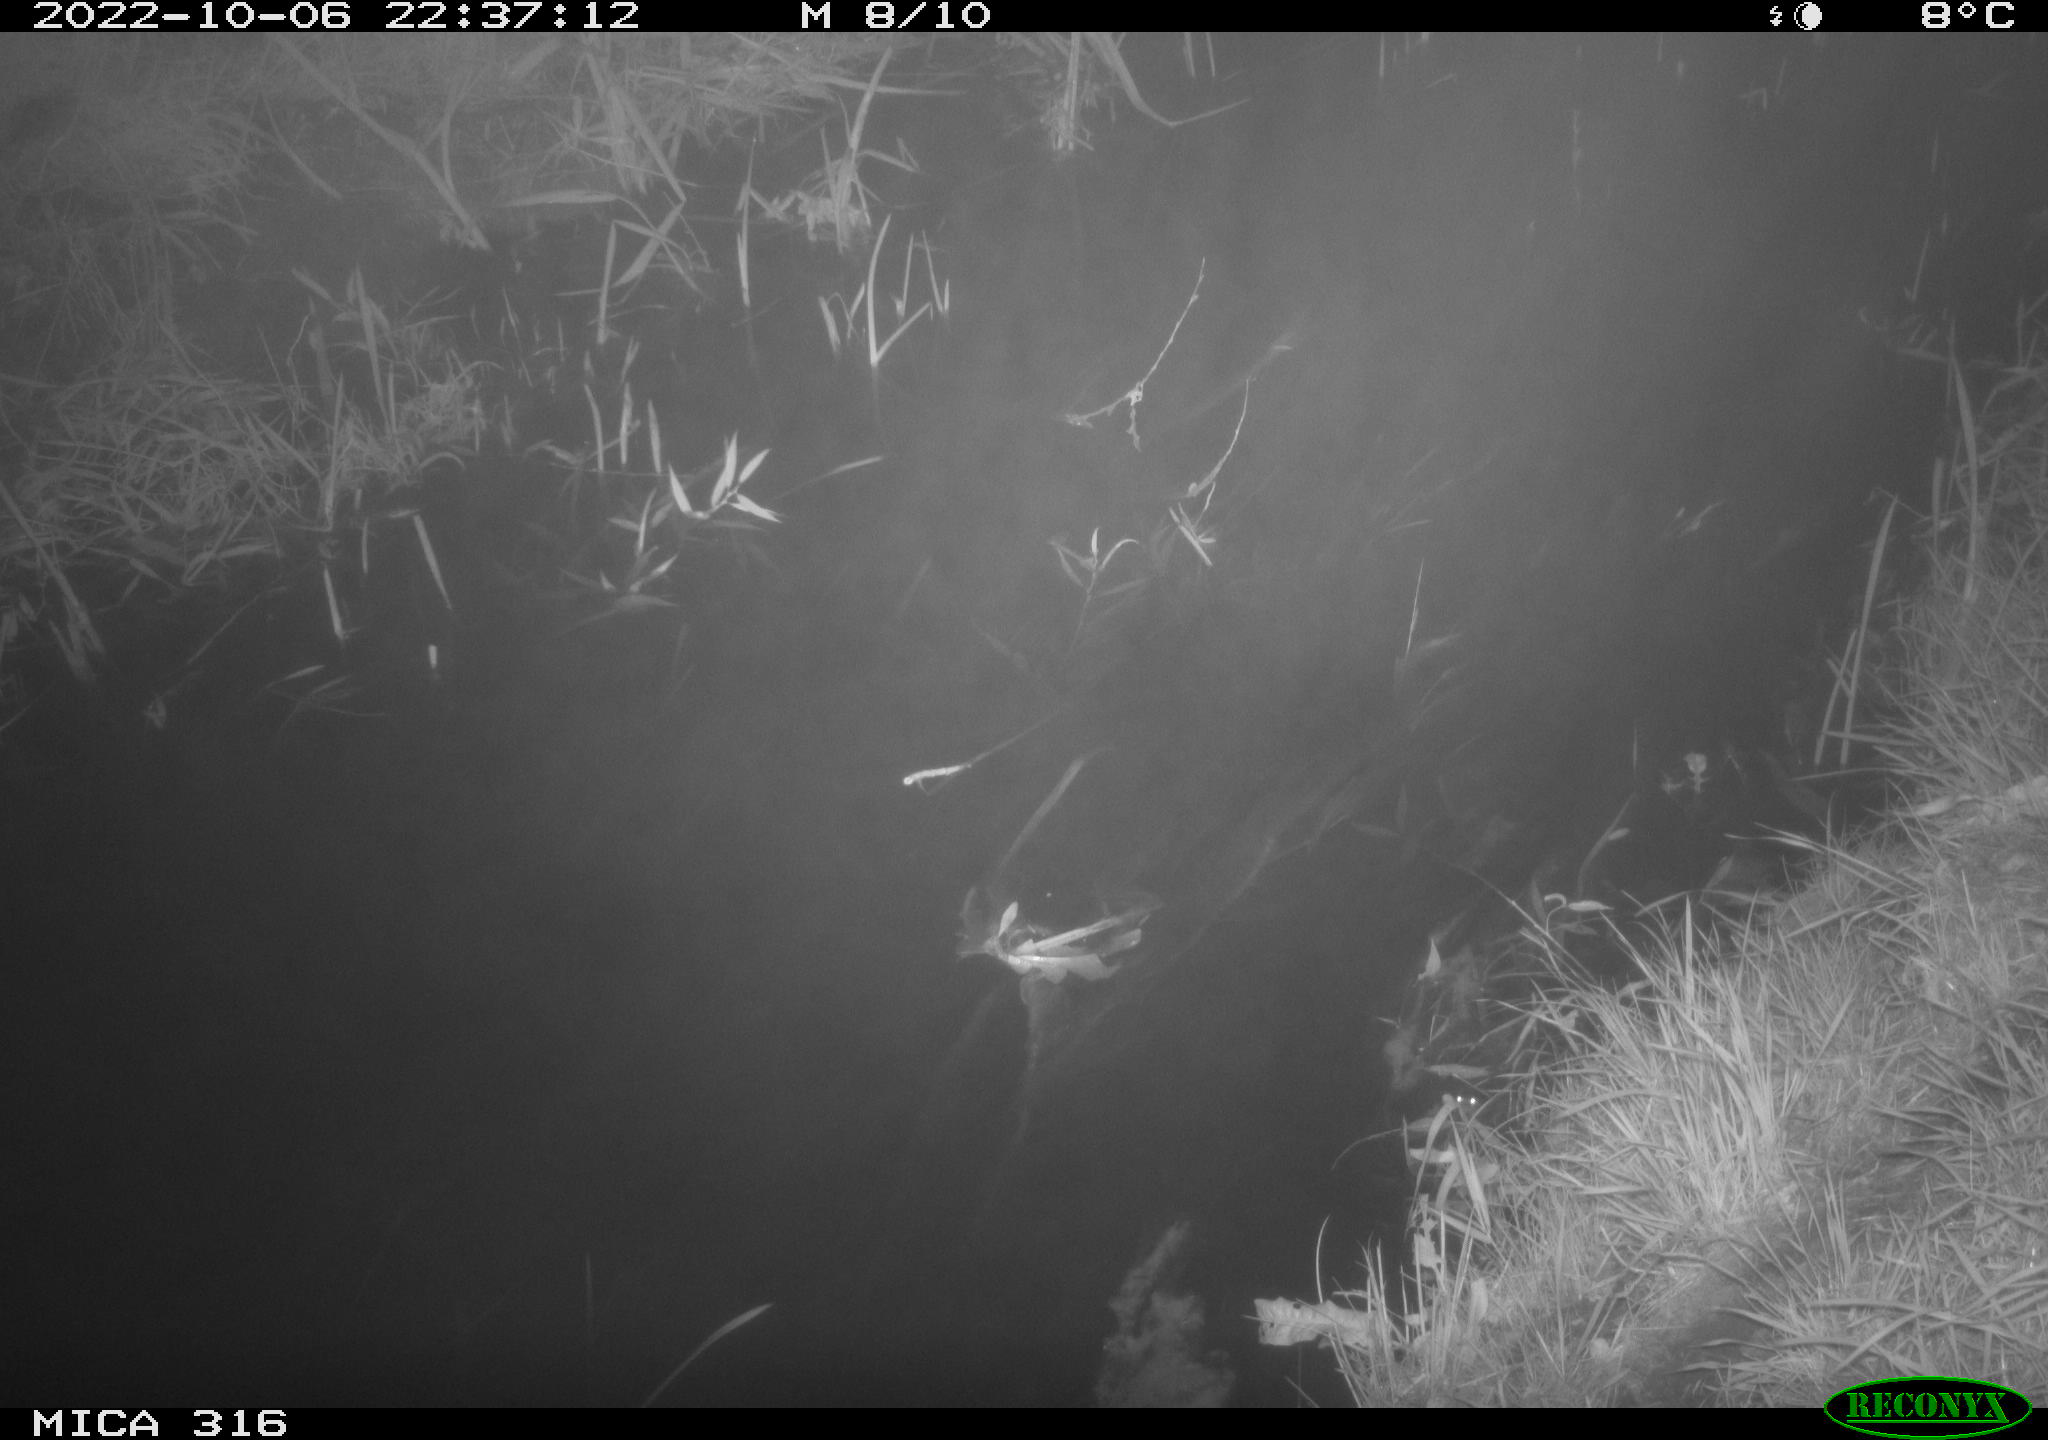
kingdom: Animalia
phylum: Chordata
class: Mammalia
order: Carnivora
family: Canidae
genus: Vulpes
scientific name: Vulpes vulpes
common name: Red fox
